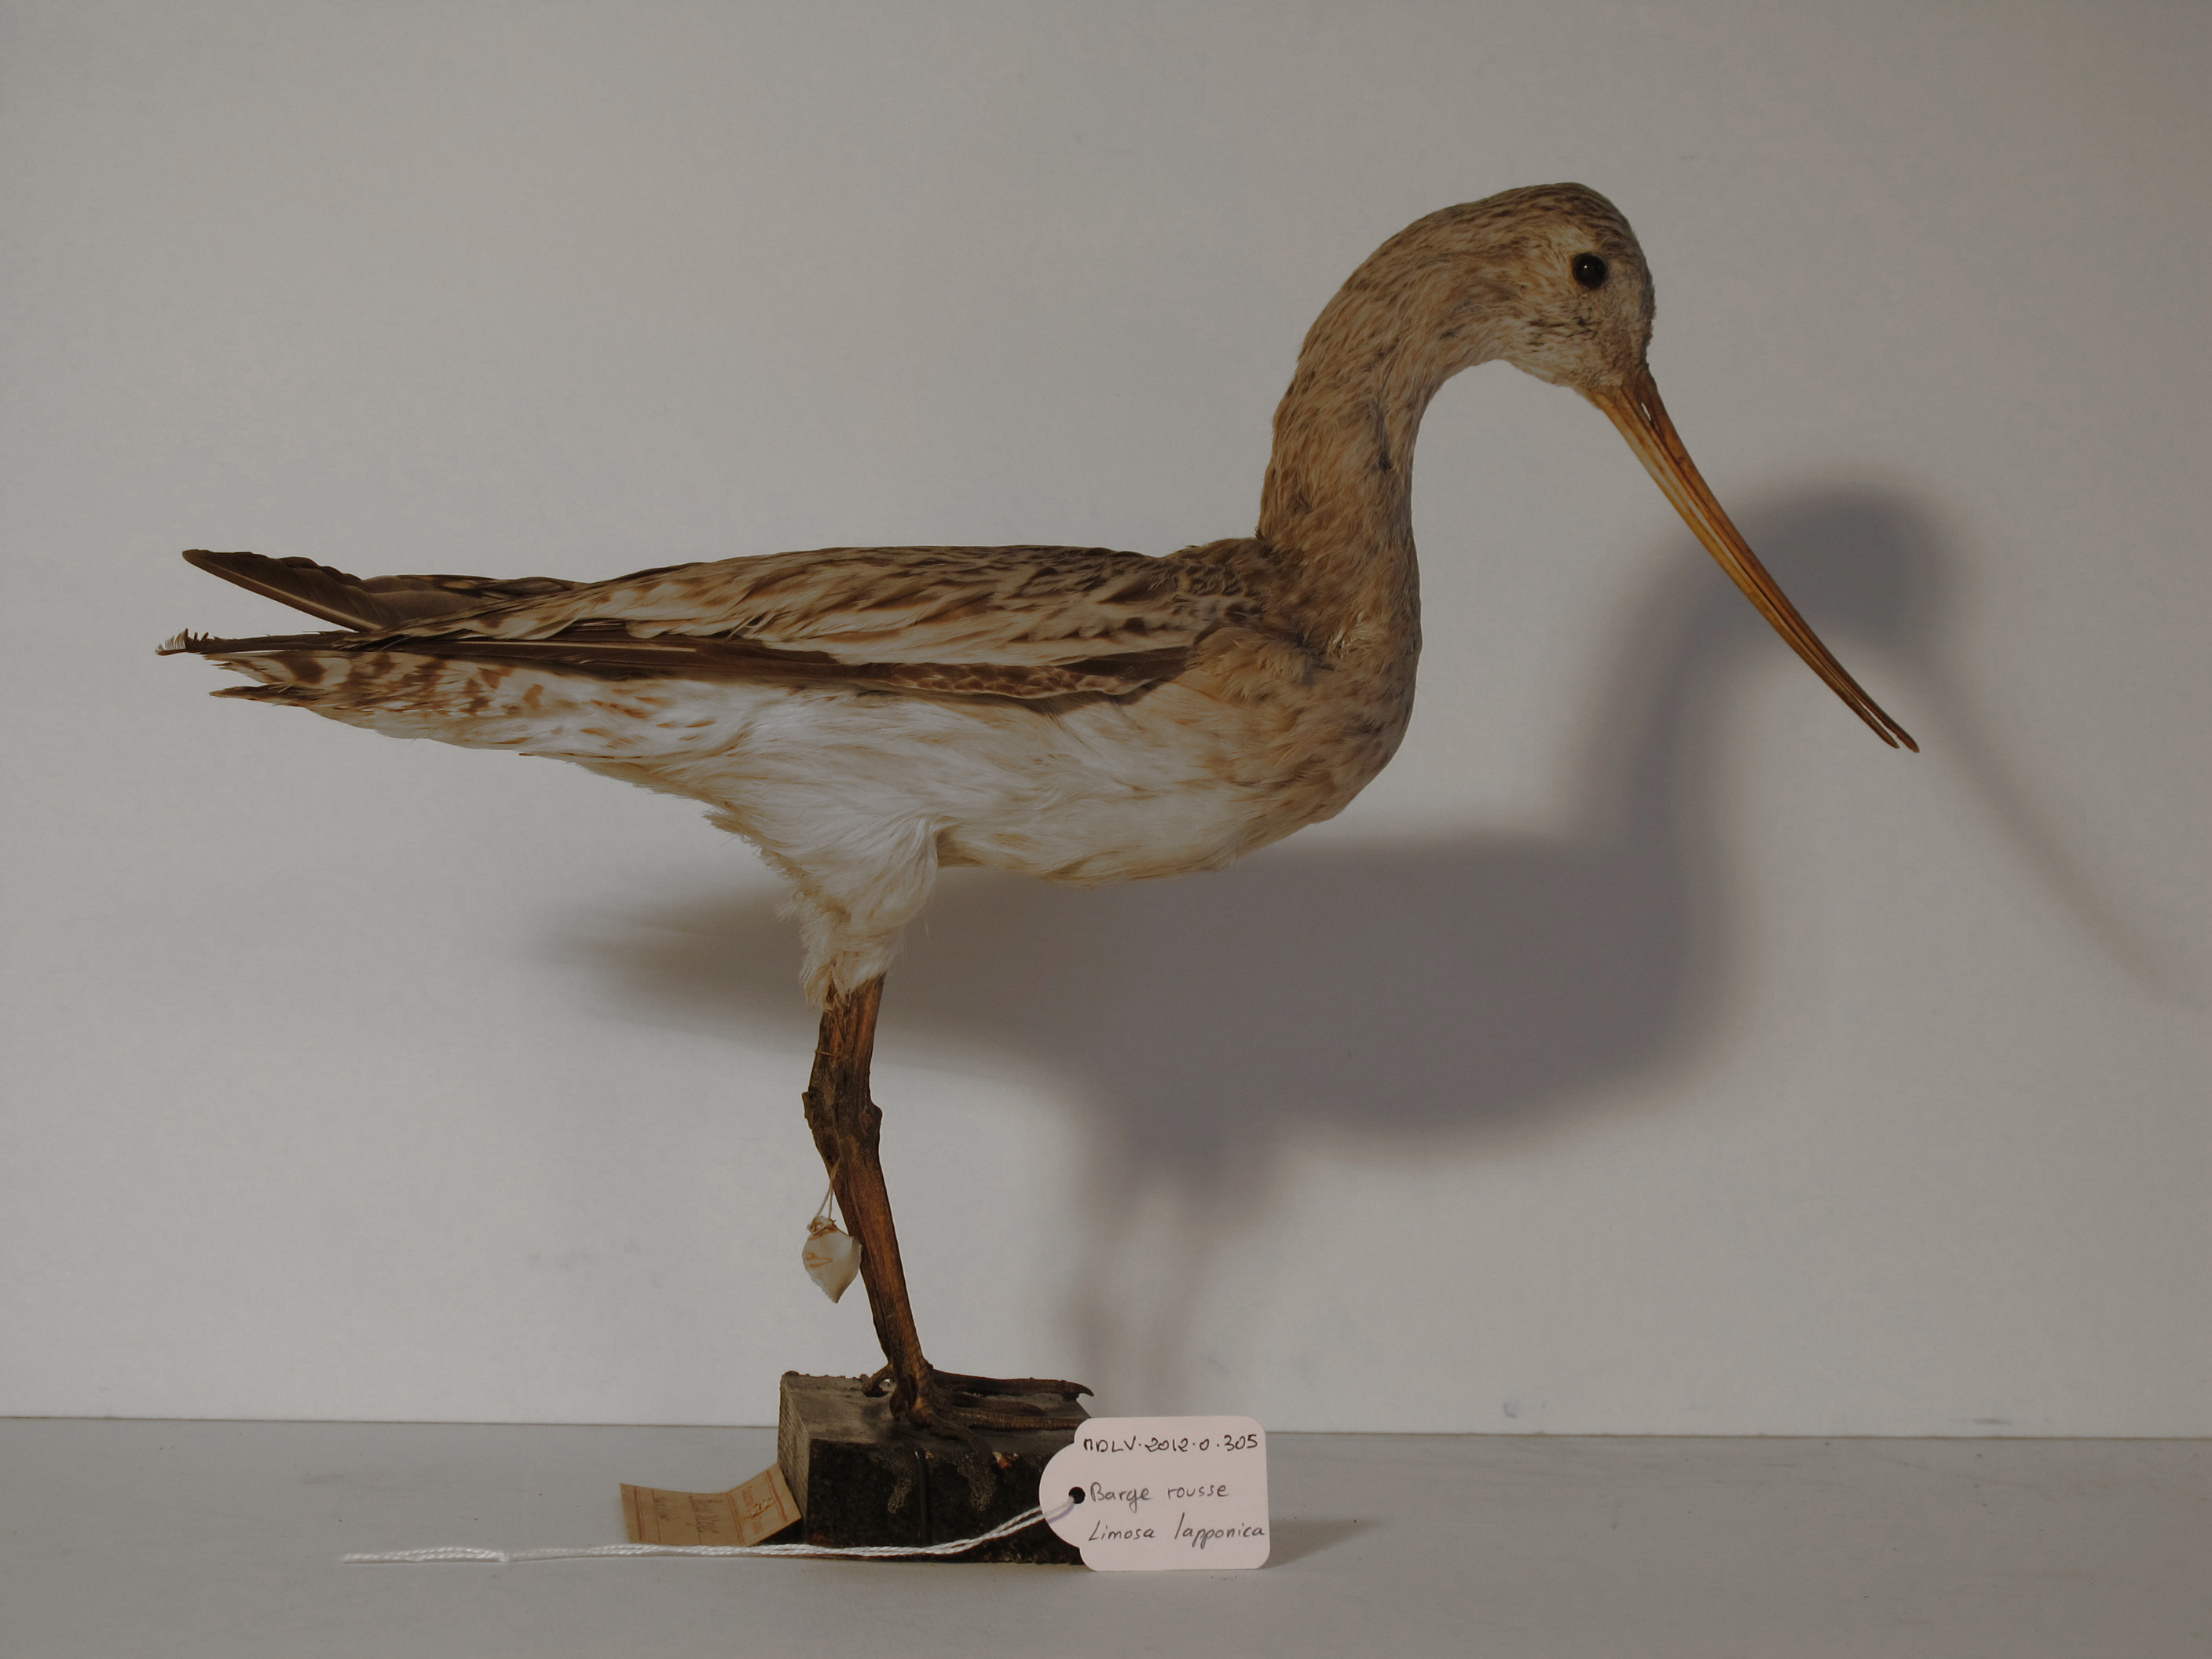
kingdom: Animalia
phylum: Chordata
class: Aves
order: Charadriiformes
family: Scolopacidae
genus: Limosa
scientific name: Limosa lapponica
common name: Bar-tailed Godwit
